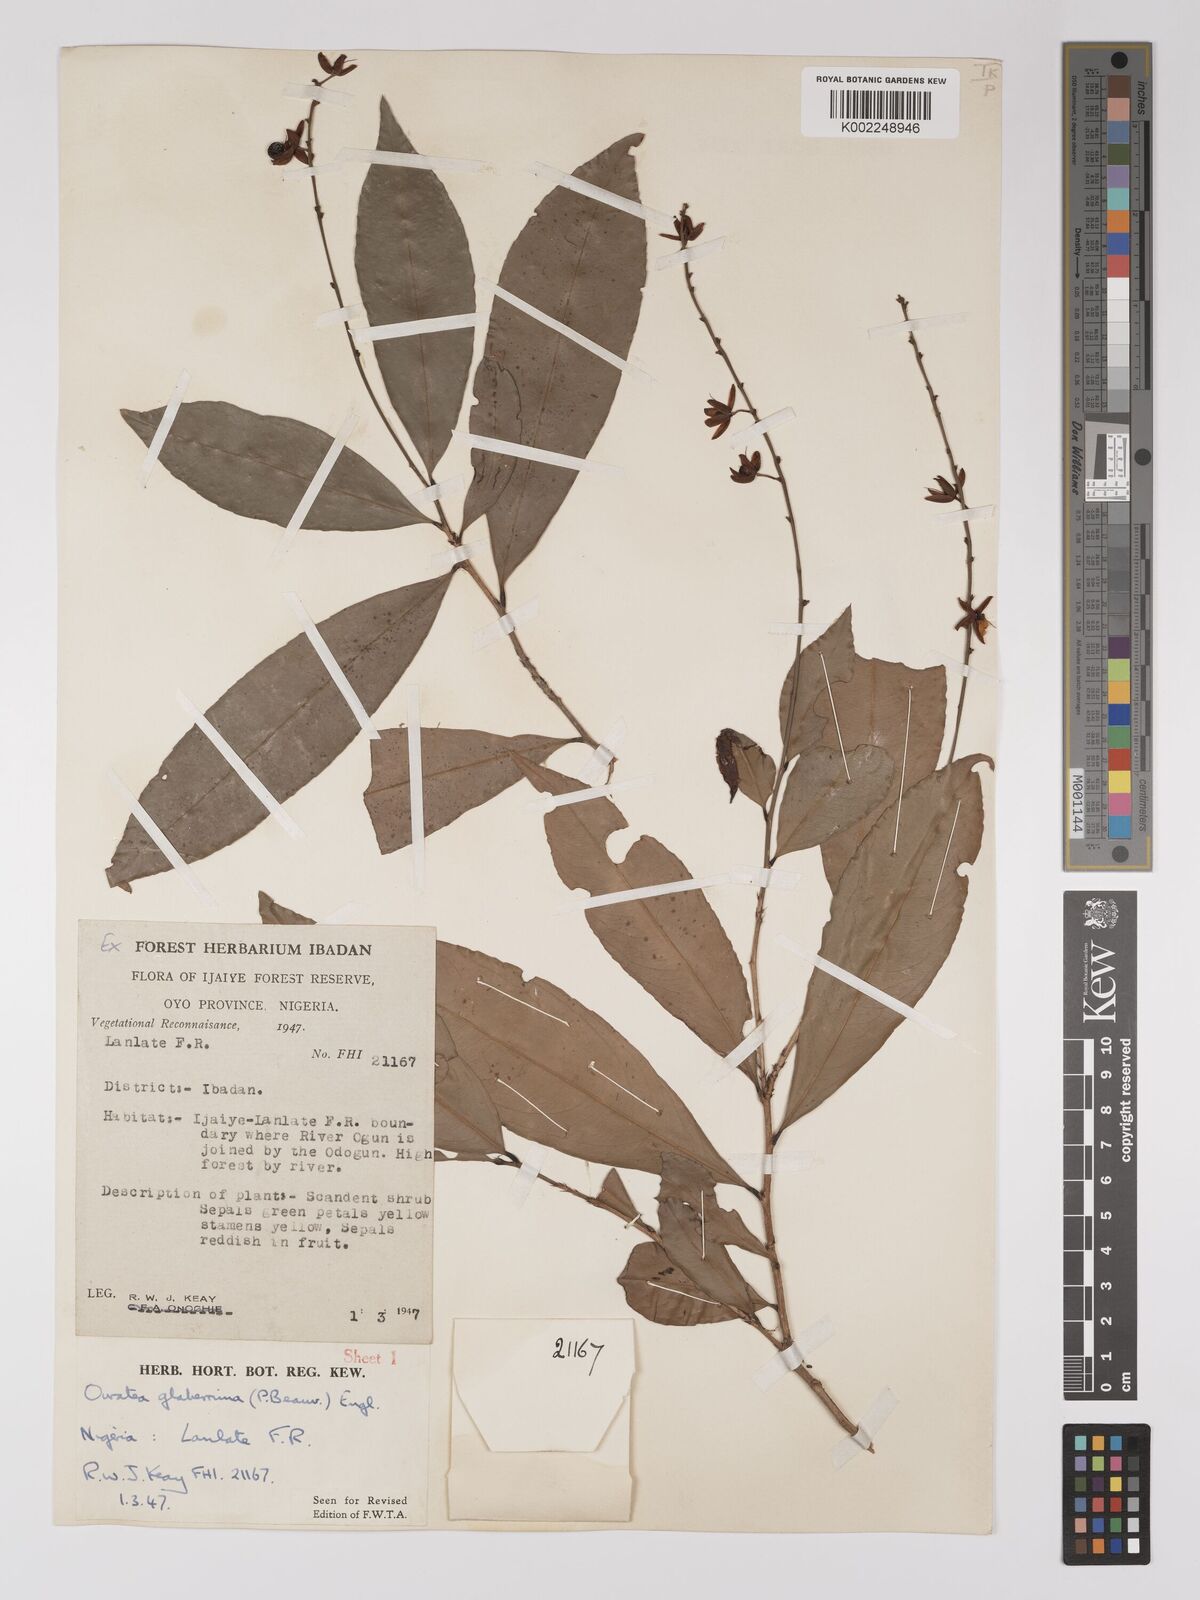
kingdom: Plantae
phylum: Tracheophyta
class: Magnoliopsida
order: Malpighiales
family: Ochnaceae
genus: Campylospermum
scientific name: Campylospermum glaberrimum
